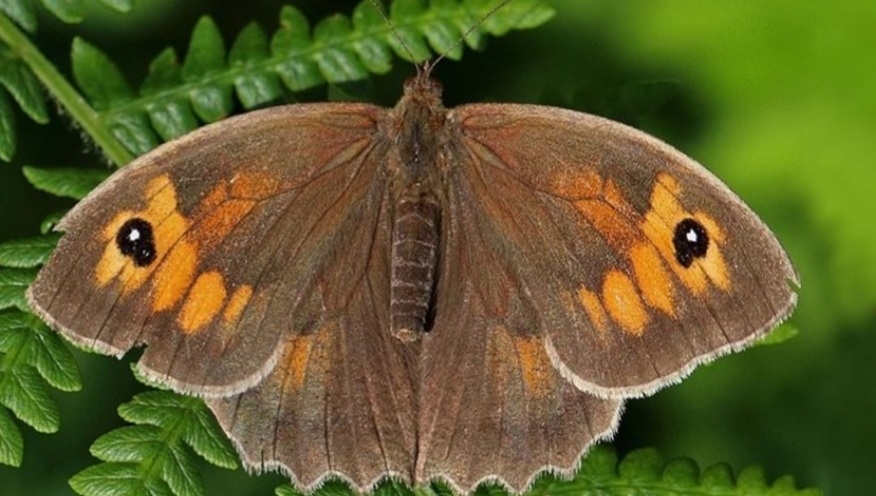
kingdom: Animalia
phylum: Arthropoda
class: Insecta
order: Lepidoptera
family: Nymphalidae
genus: Maniola
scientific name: Maniola jurtina
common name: Græsrandøje
